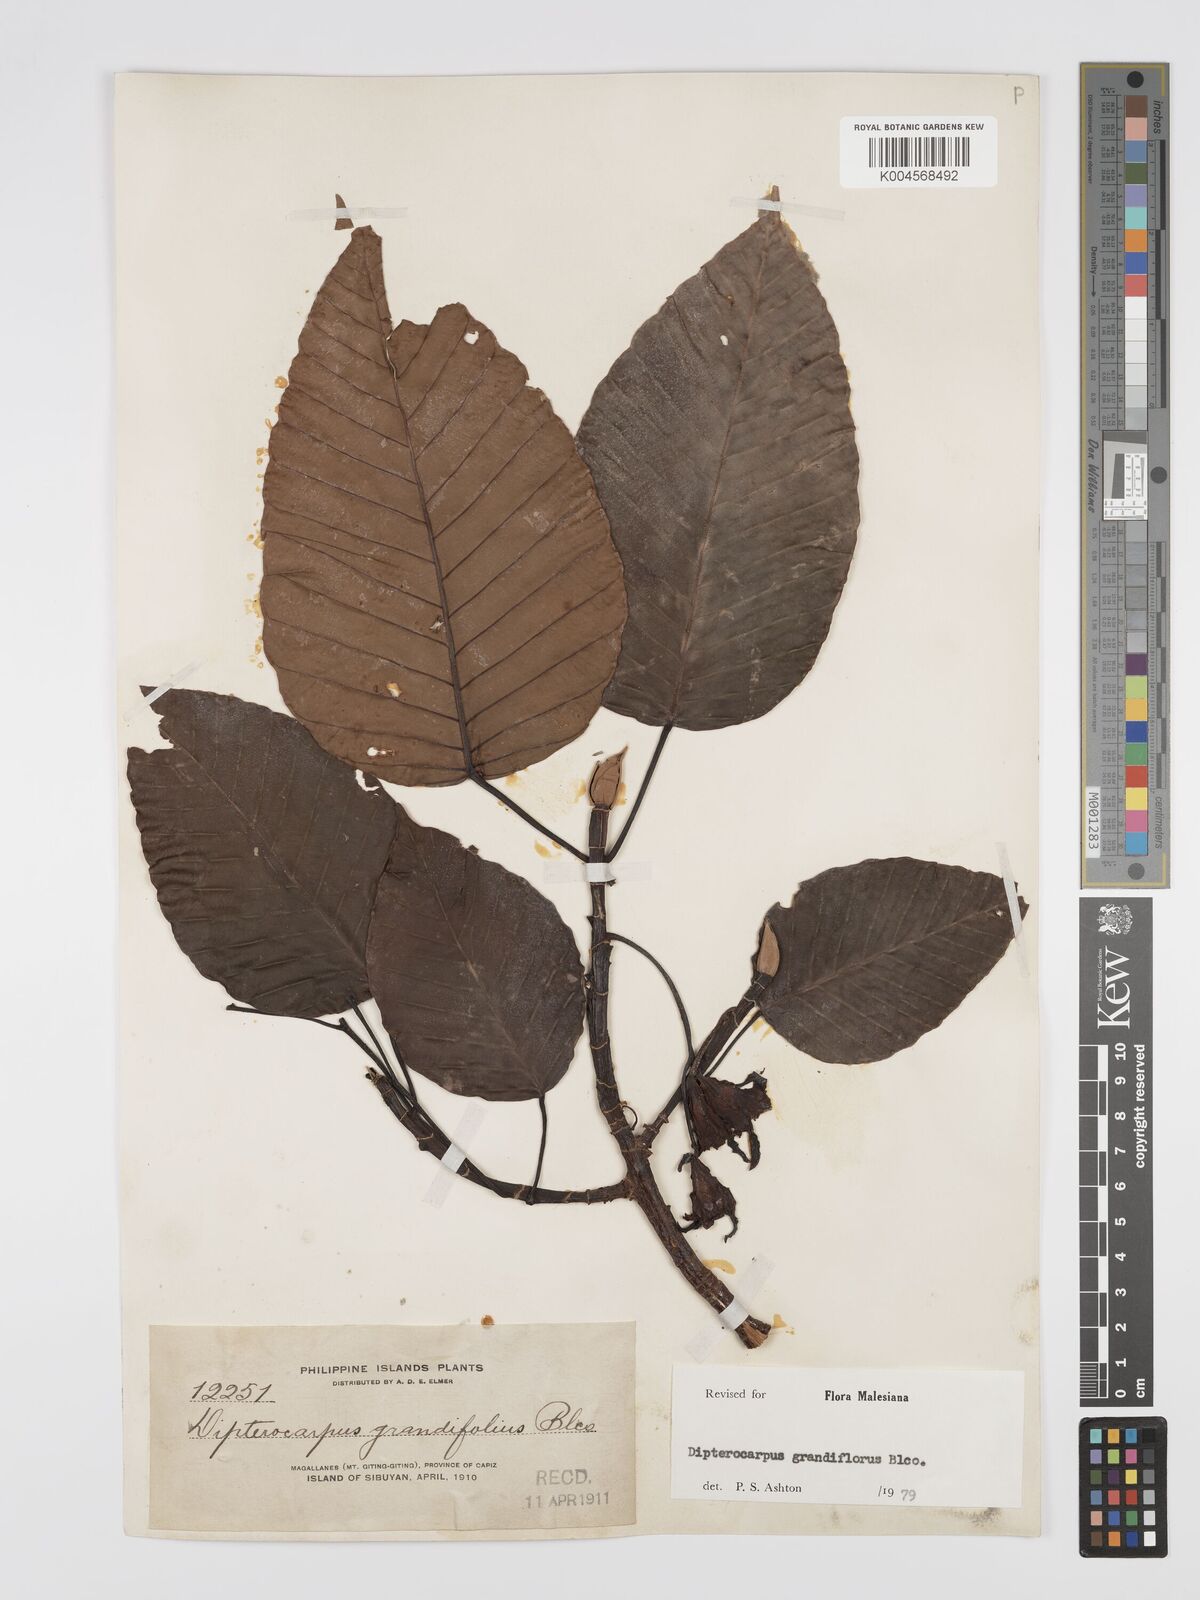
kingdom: Plantae
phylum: Tracheophyta
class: Magnoliopsida
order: Malvales
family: Dipterocarpaceae
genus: Dipterocarpus
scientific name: Dipterocarpus grandiflorus
